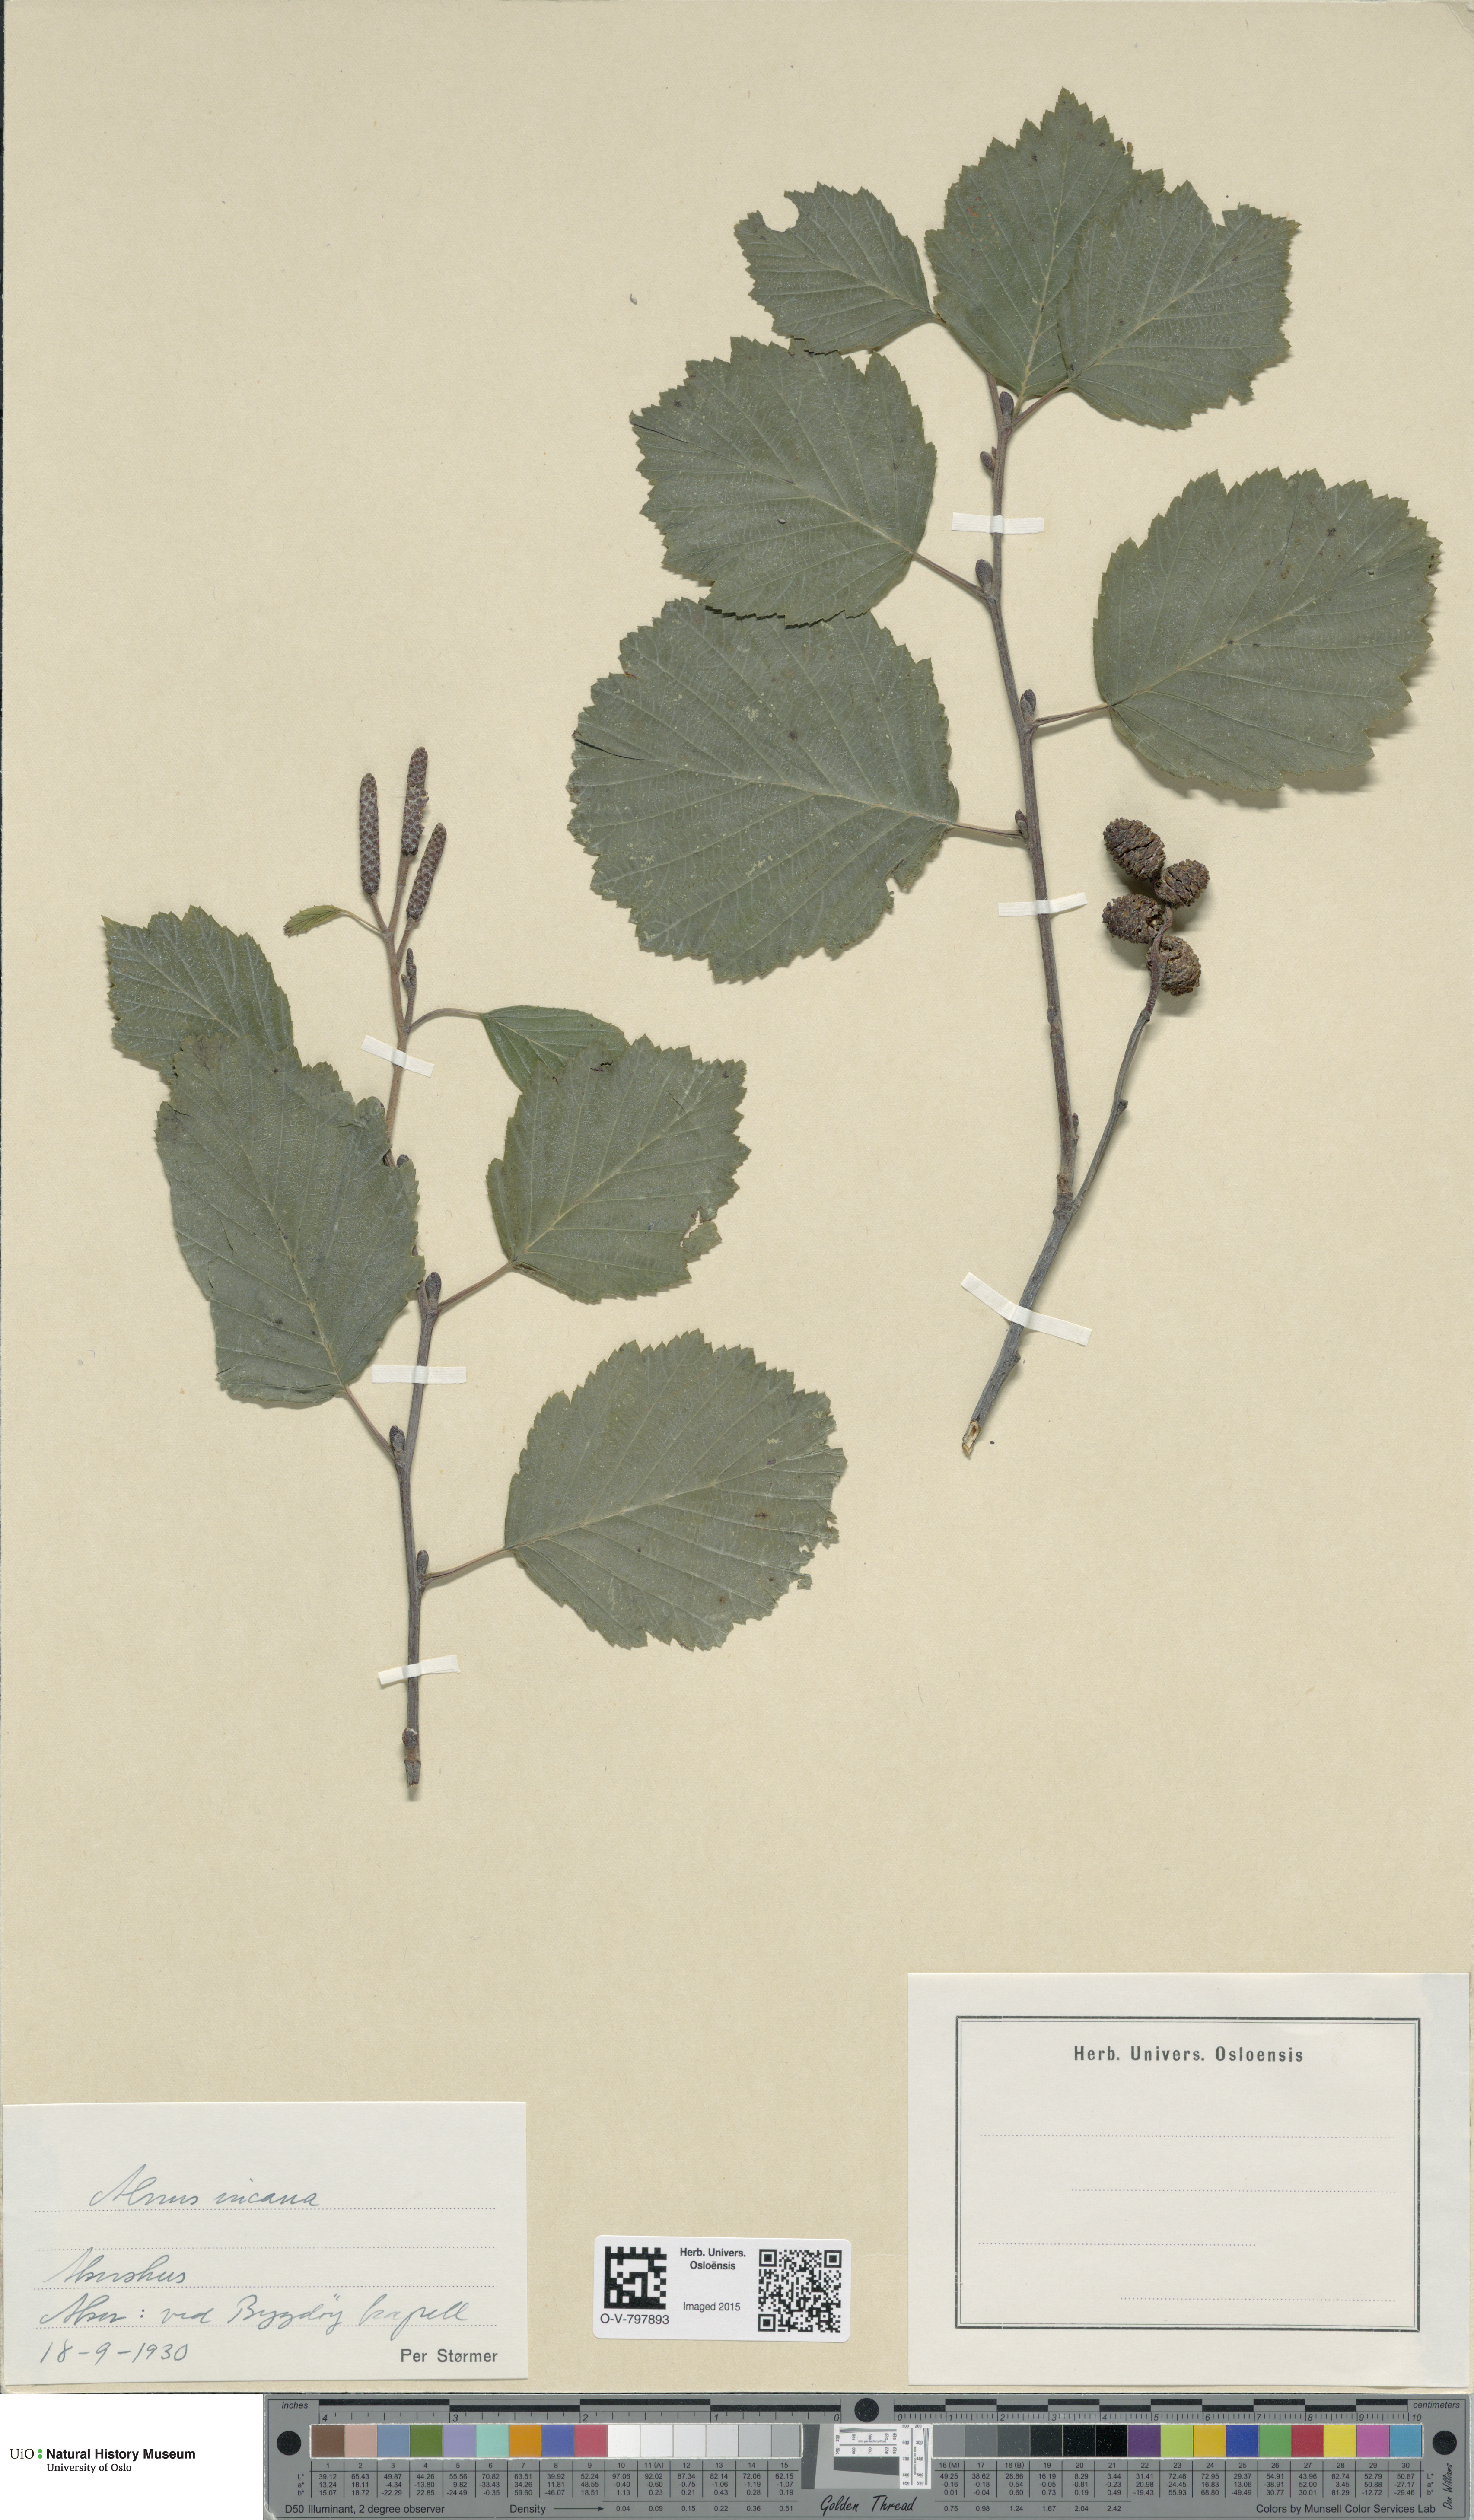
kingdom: Plantae
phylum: Tracheophyta
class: Magnoliopsida
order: Fagales
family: Betulaceae
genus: Alnus
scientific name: Alnus incana
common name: Grey alder
